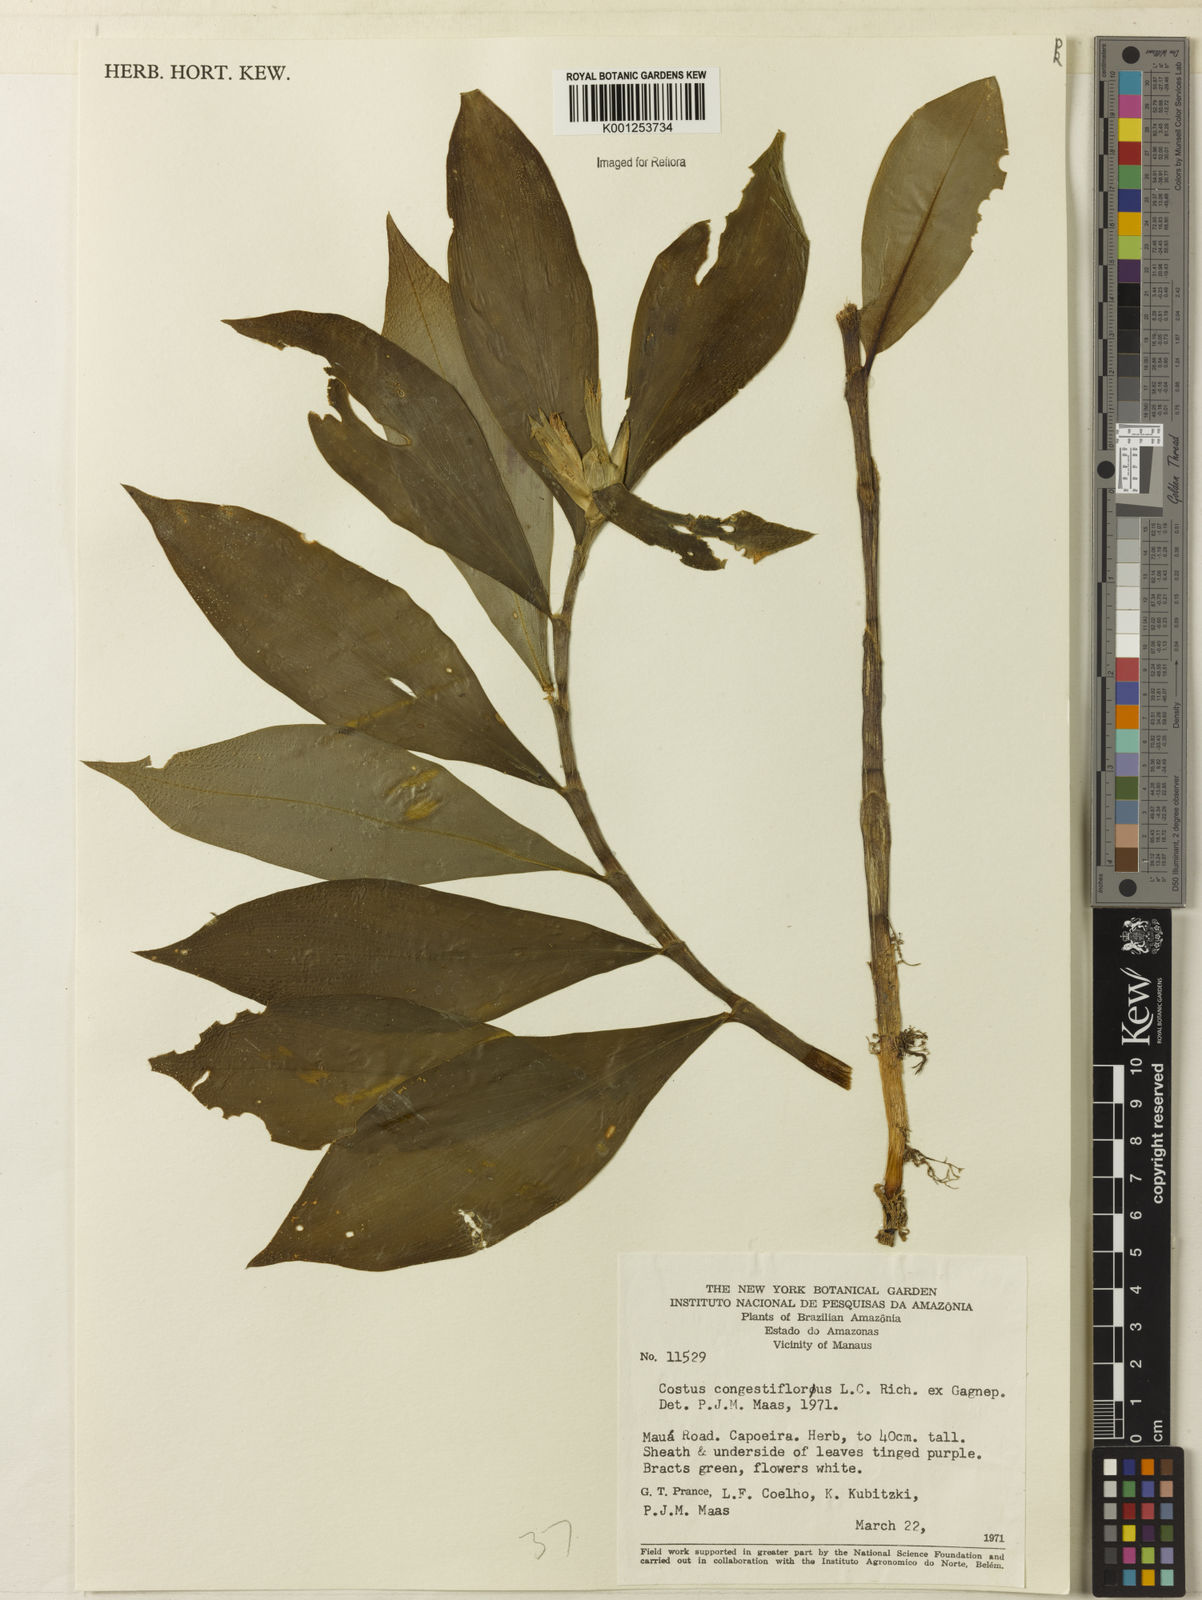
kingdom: Plantae
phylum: Tracheophyta
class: Liliopsida
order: Zingiberales
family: Costaceae
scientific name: Costaceae
